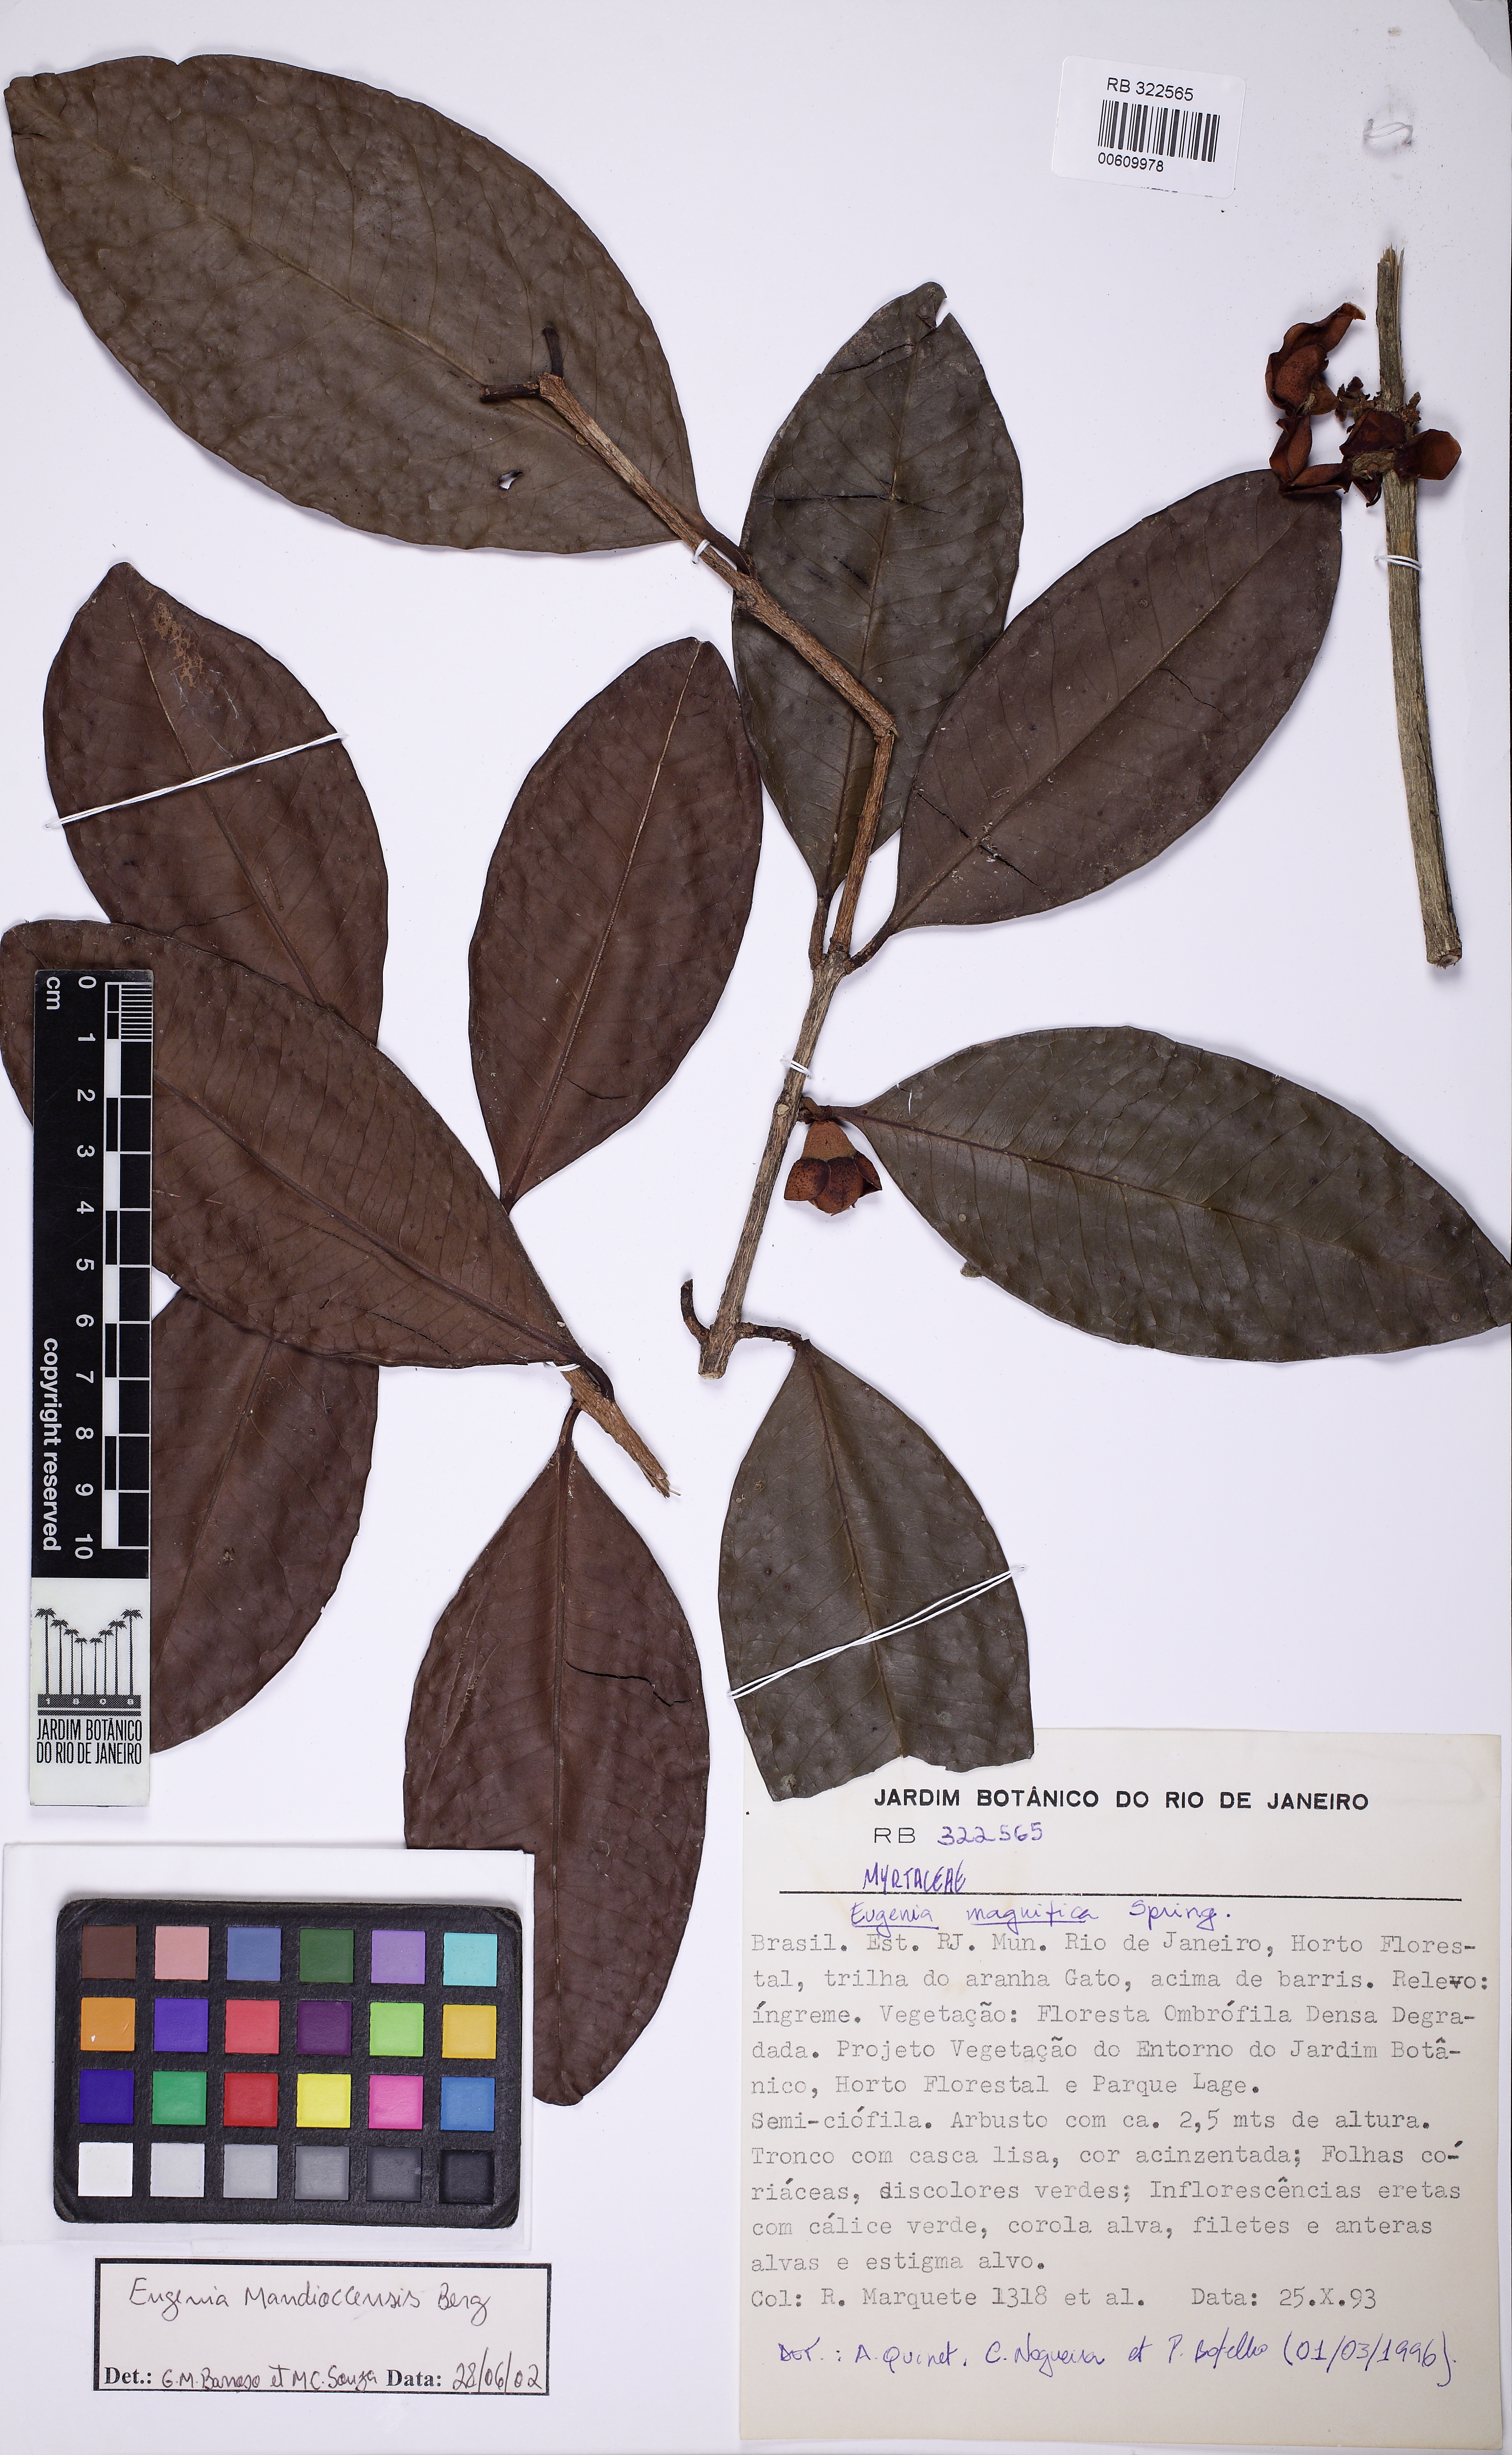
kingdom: Plantae
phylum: Tracheophyta
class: Magnoliopsida
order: Myrtales
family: Myrtaceae
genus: Eugenia
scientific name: Eugenia mandioccensis
